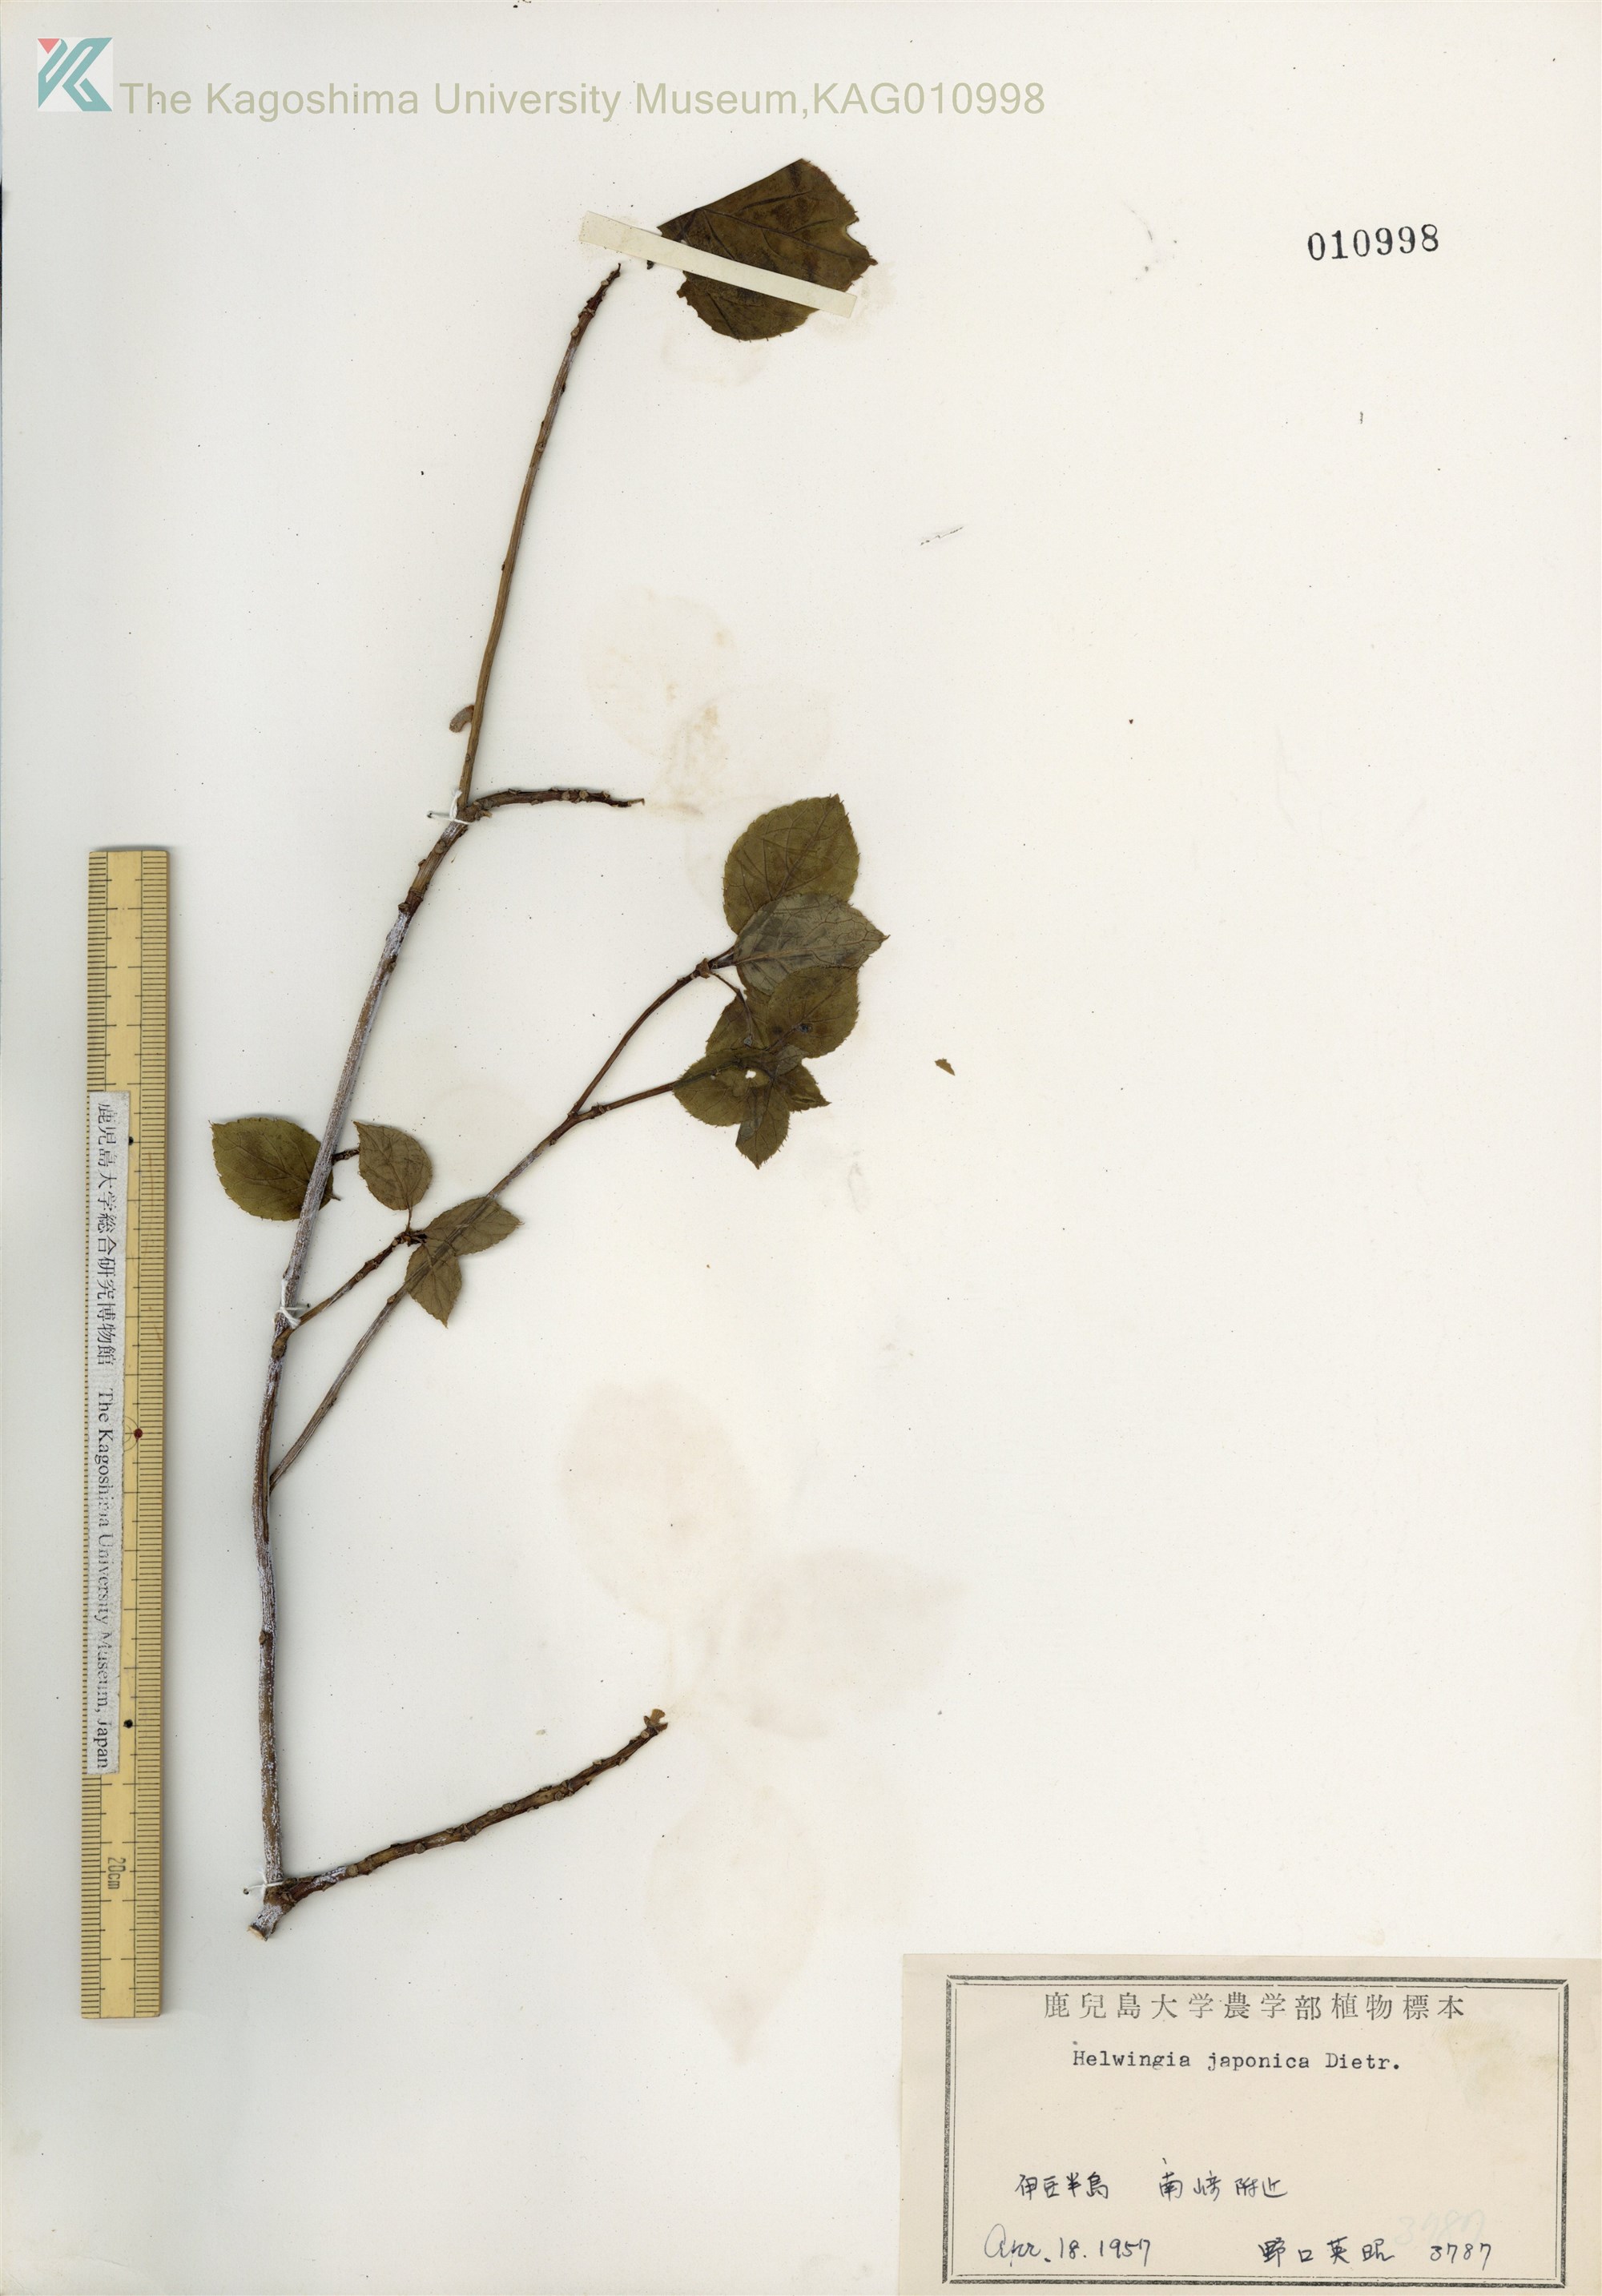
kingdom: Plantae
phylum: Tracheophyta
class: Magnoliopsida
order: Aquifoliales
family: Helwingiaceae
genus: Helwingia
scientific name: Helwingia japonica
